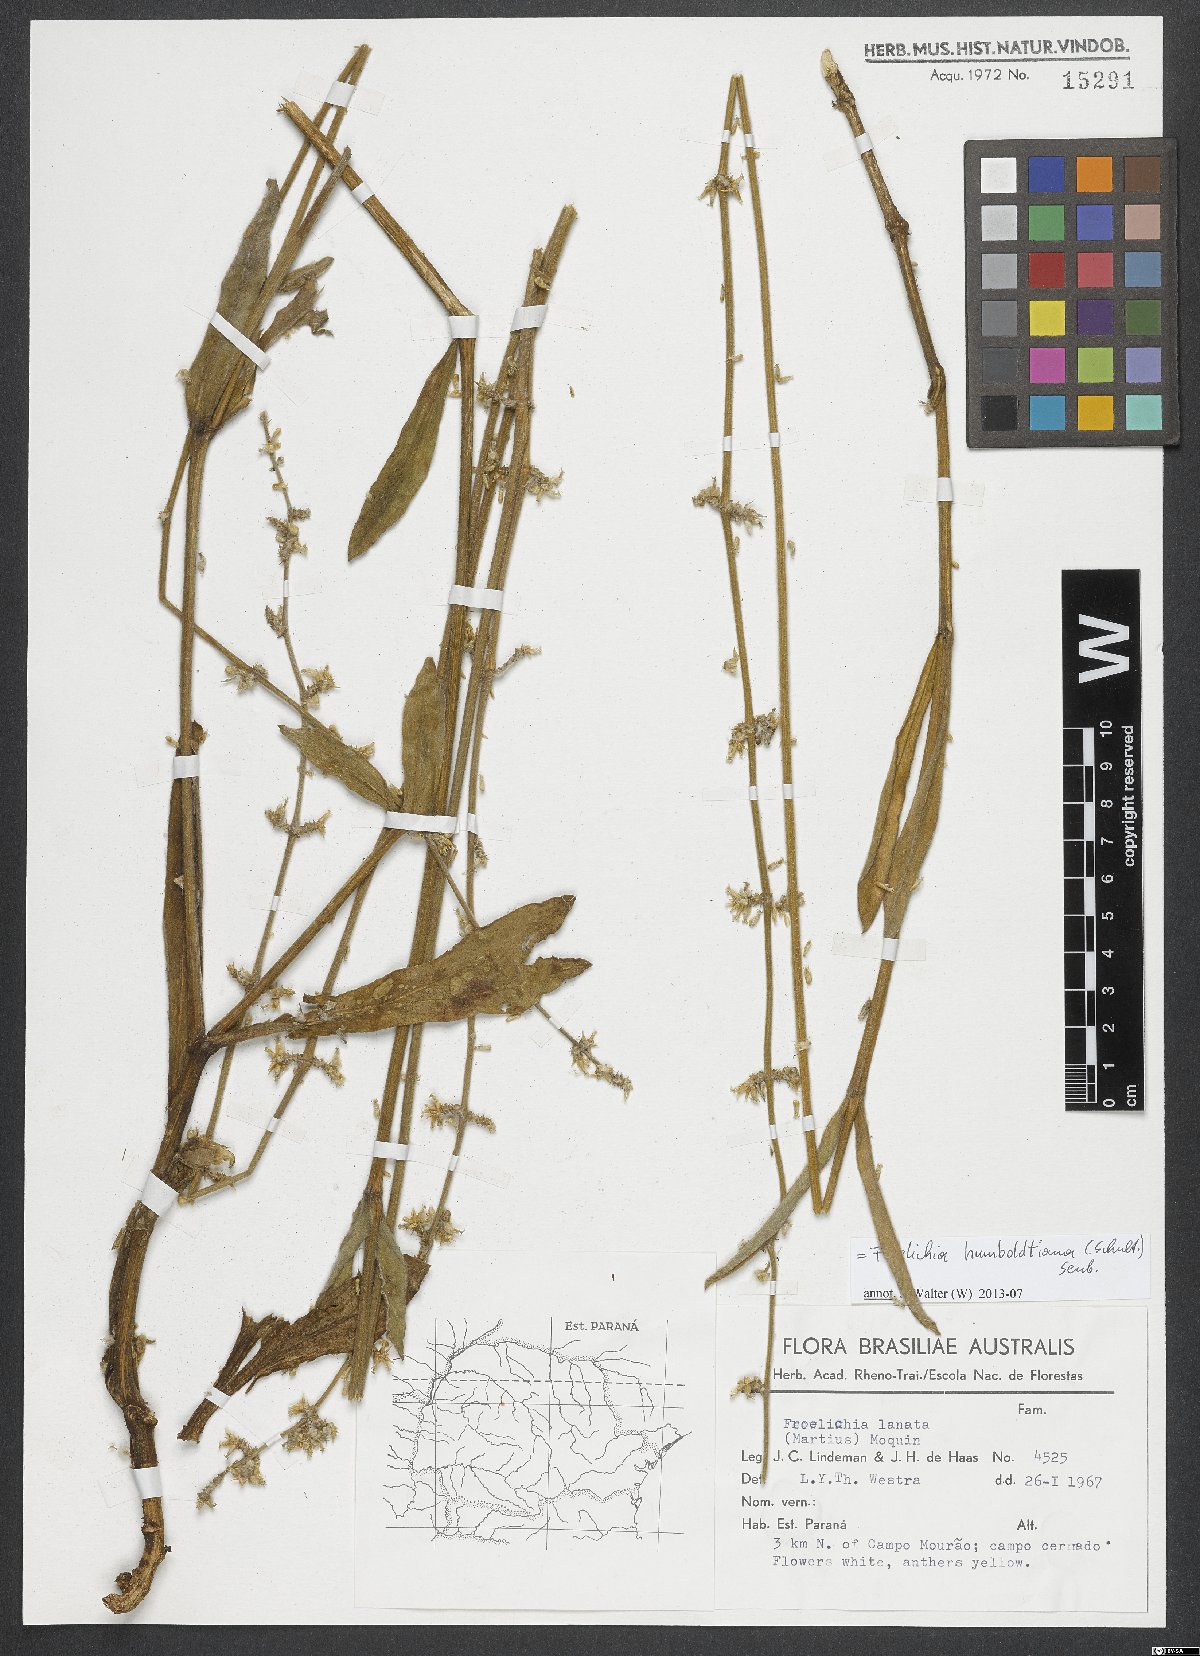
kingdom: Plantae
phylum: Tracheophyta
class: Magnoliopsida
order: Caryophyllales
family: Amaranthaceae
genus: Froelichia
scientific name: Froelichia humboldtiana
